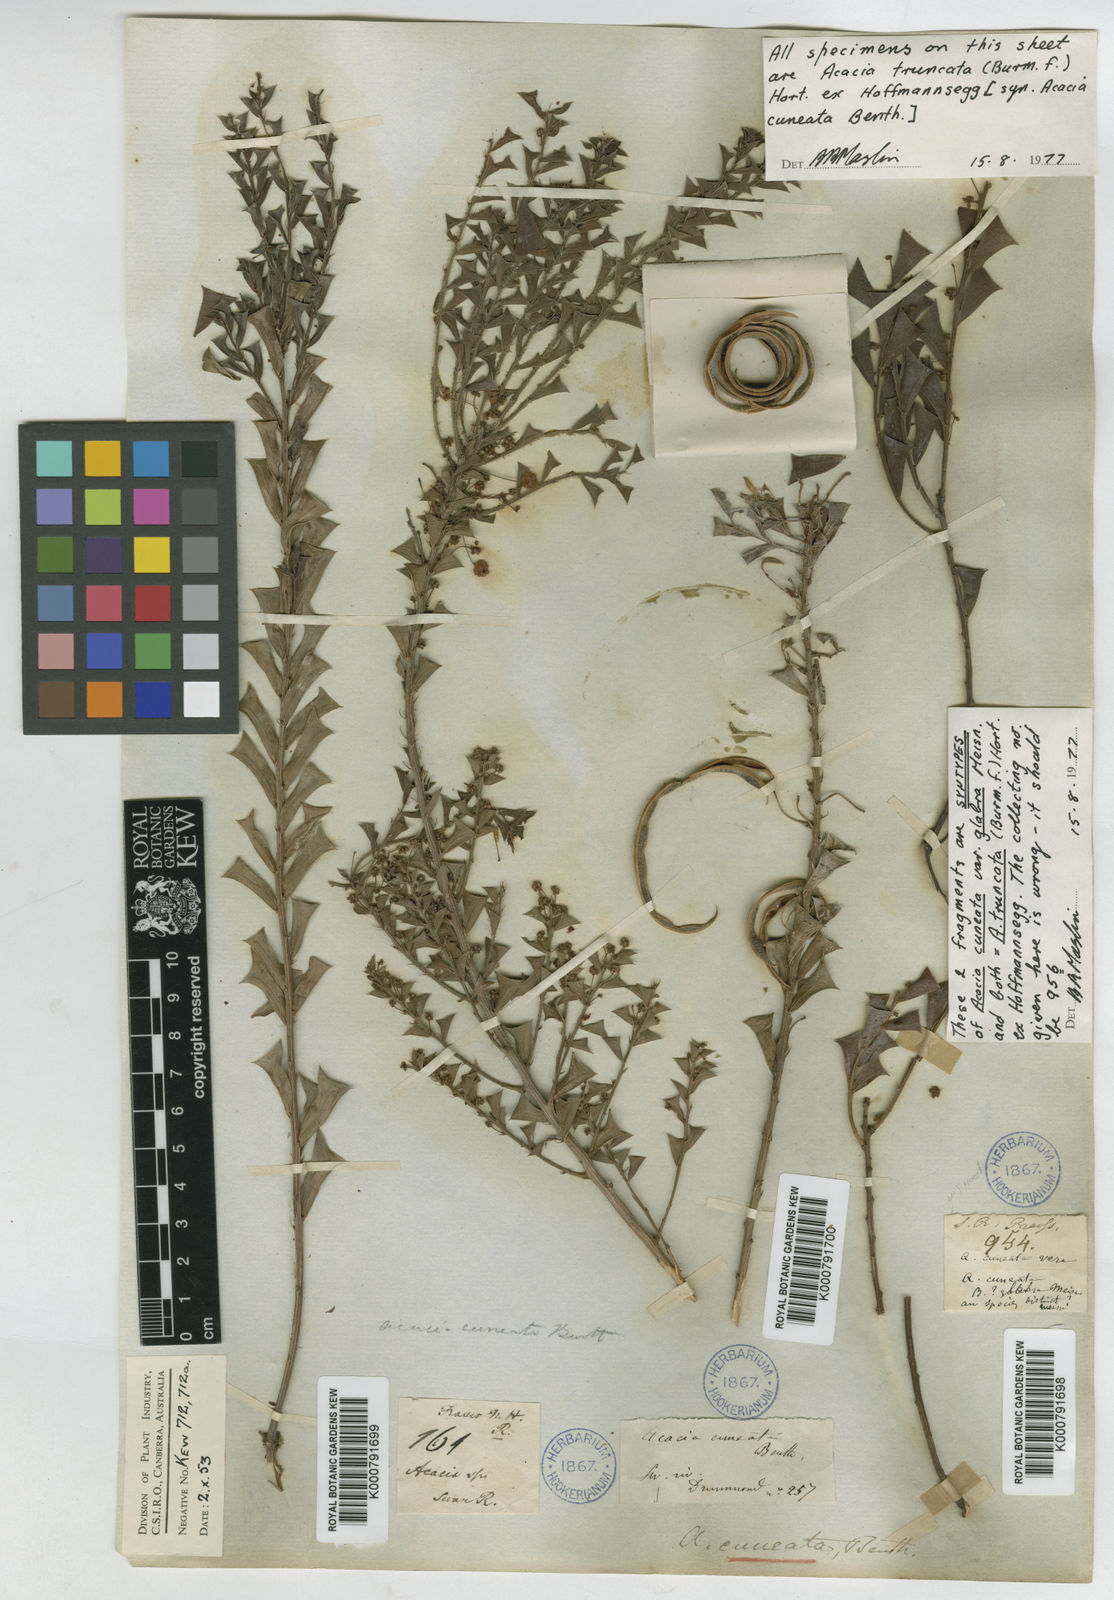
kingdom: Plantae
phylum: Tracheophyta
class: Magnoliopsida
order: Fabales
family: Fabaceae
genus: Acacia
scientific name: Acacia truncata
